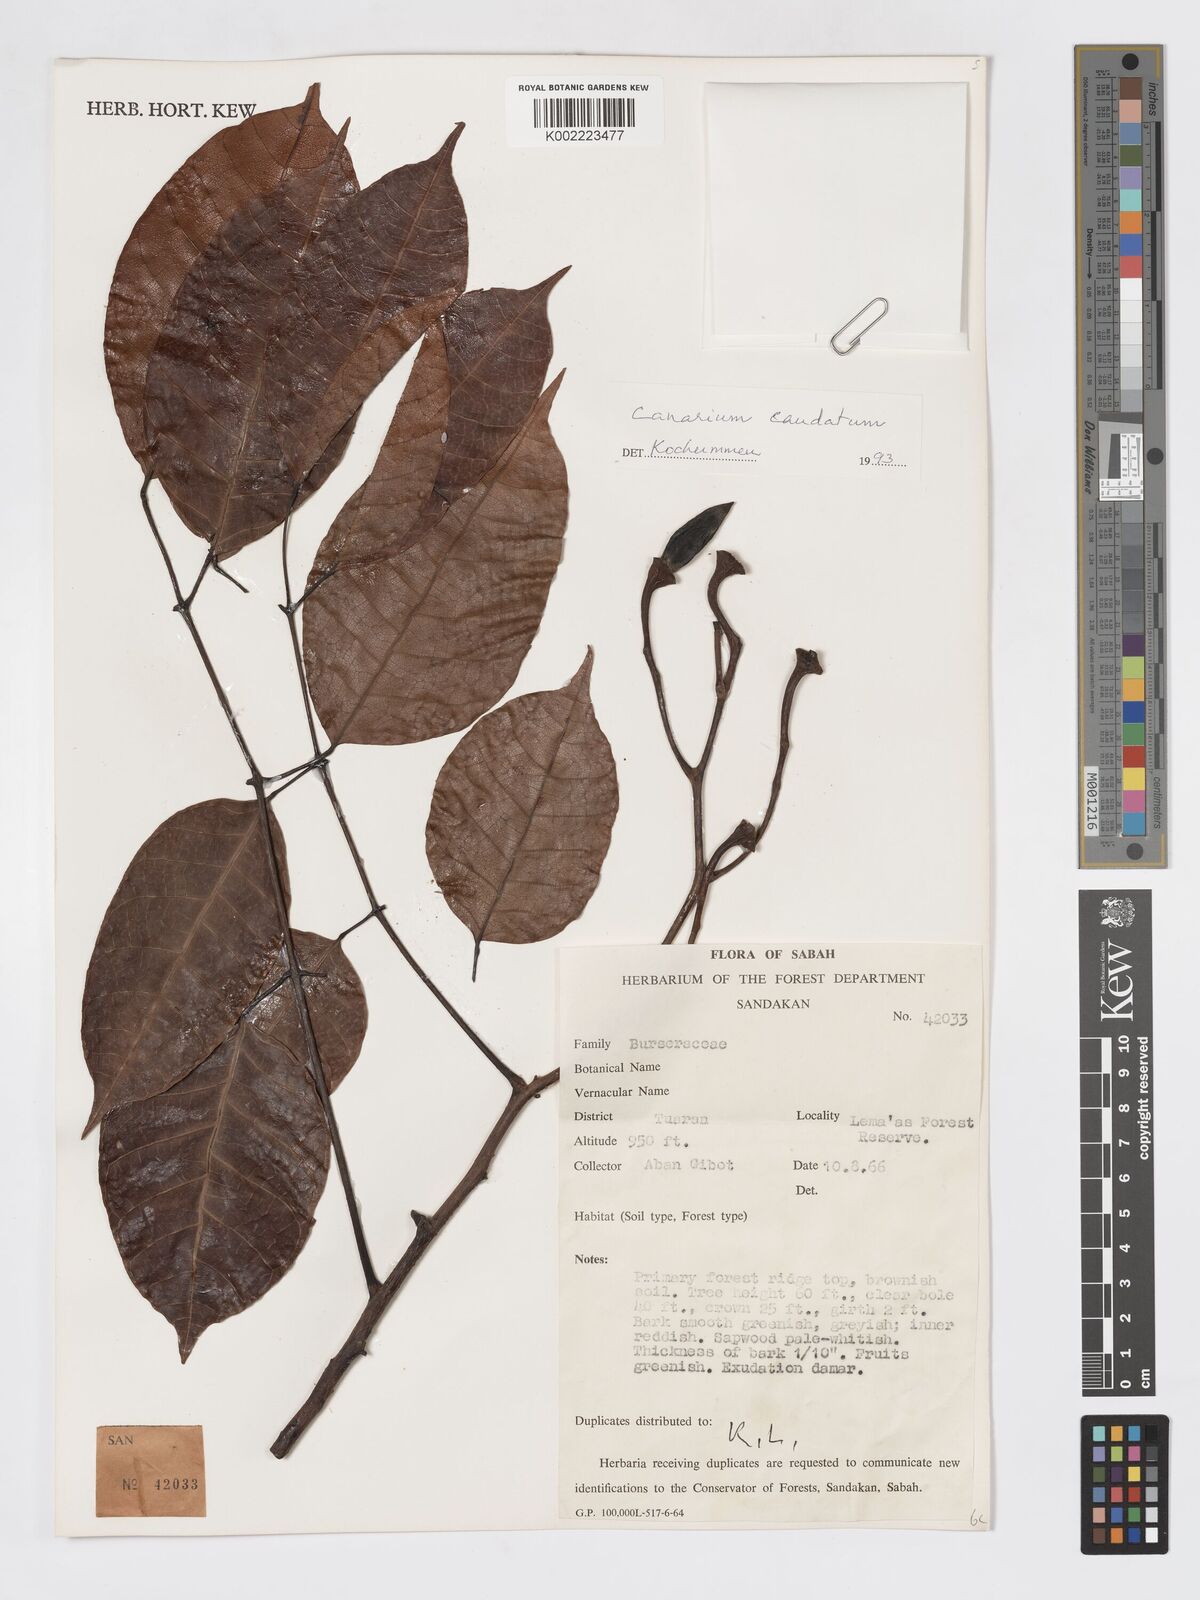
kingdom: Plantae
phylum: Tracheophyta
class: Magnoliopsida
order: Sapindales
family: Burseraceae
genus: Canarium
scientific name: Canarium caudatum
